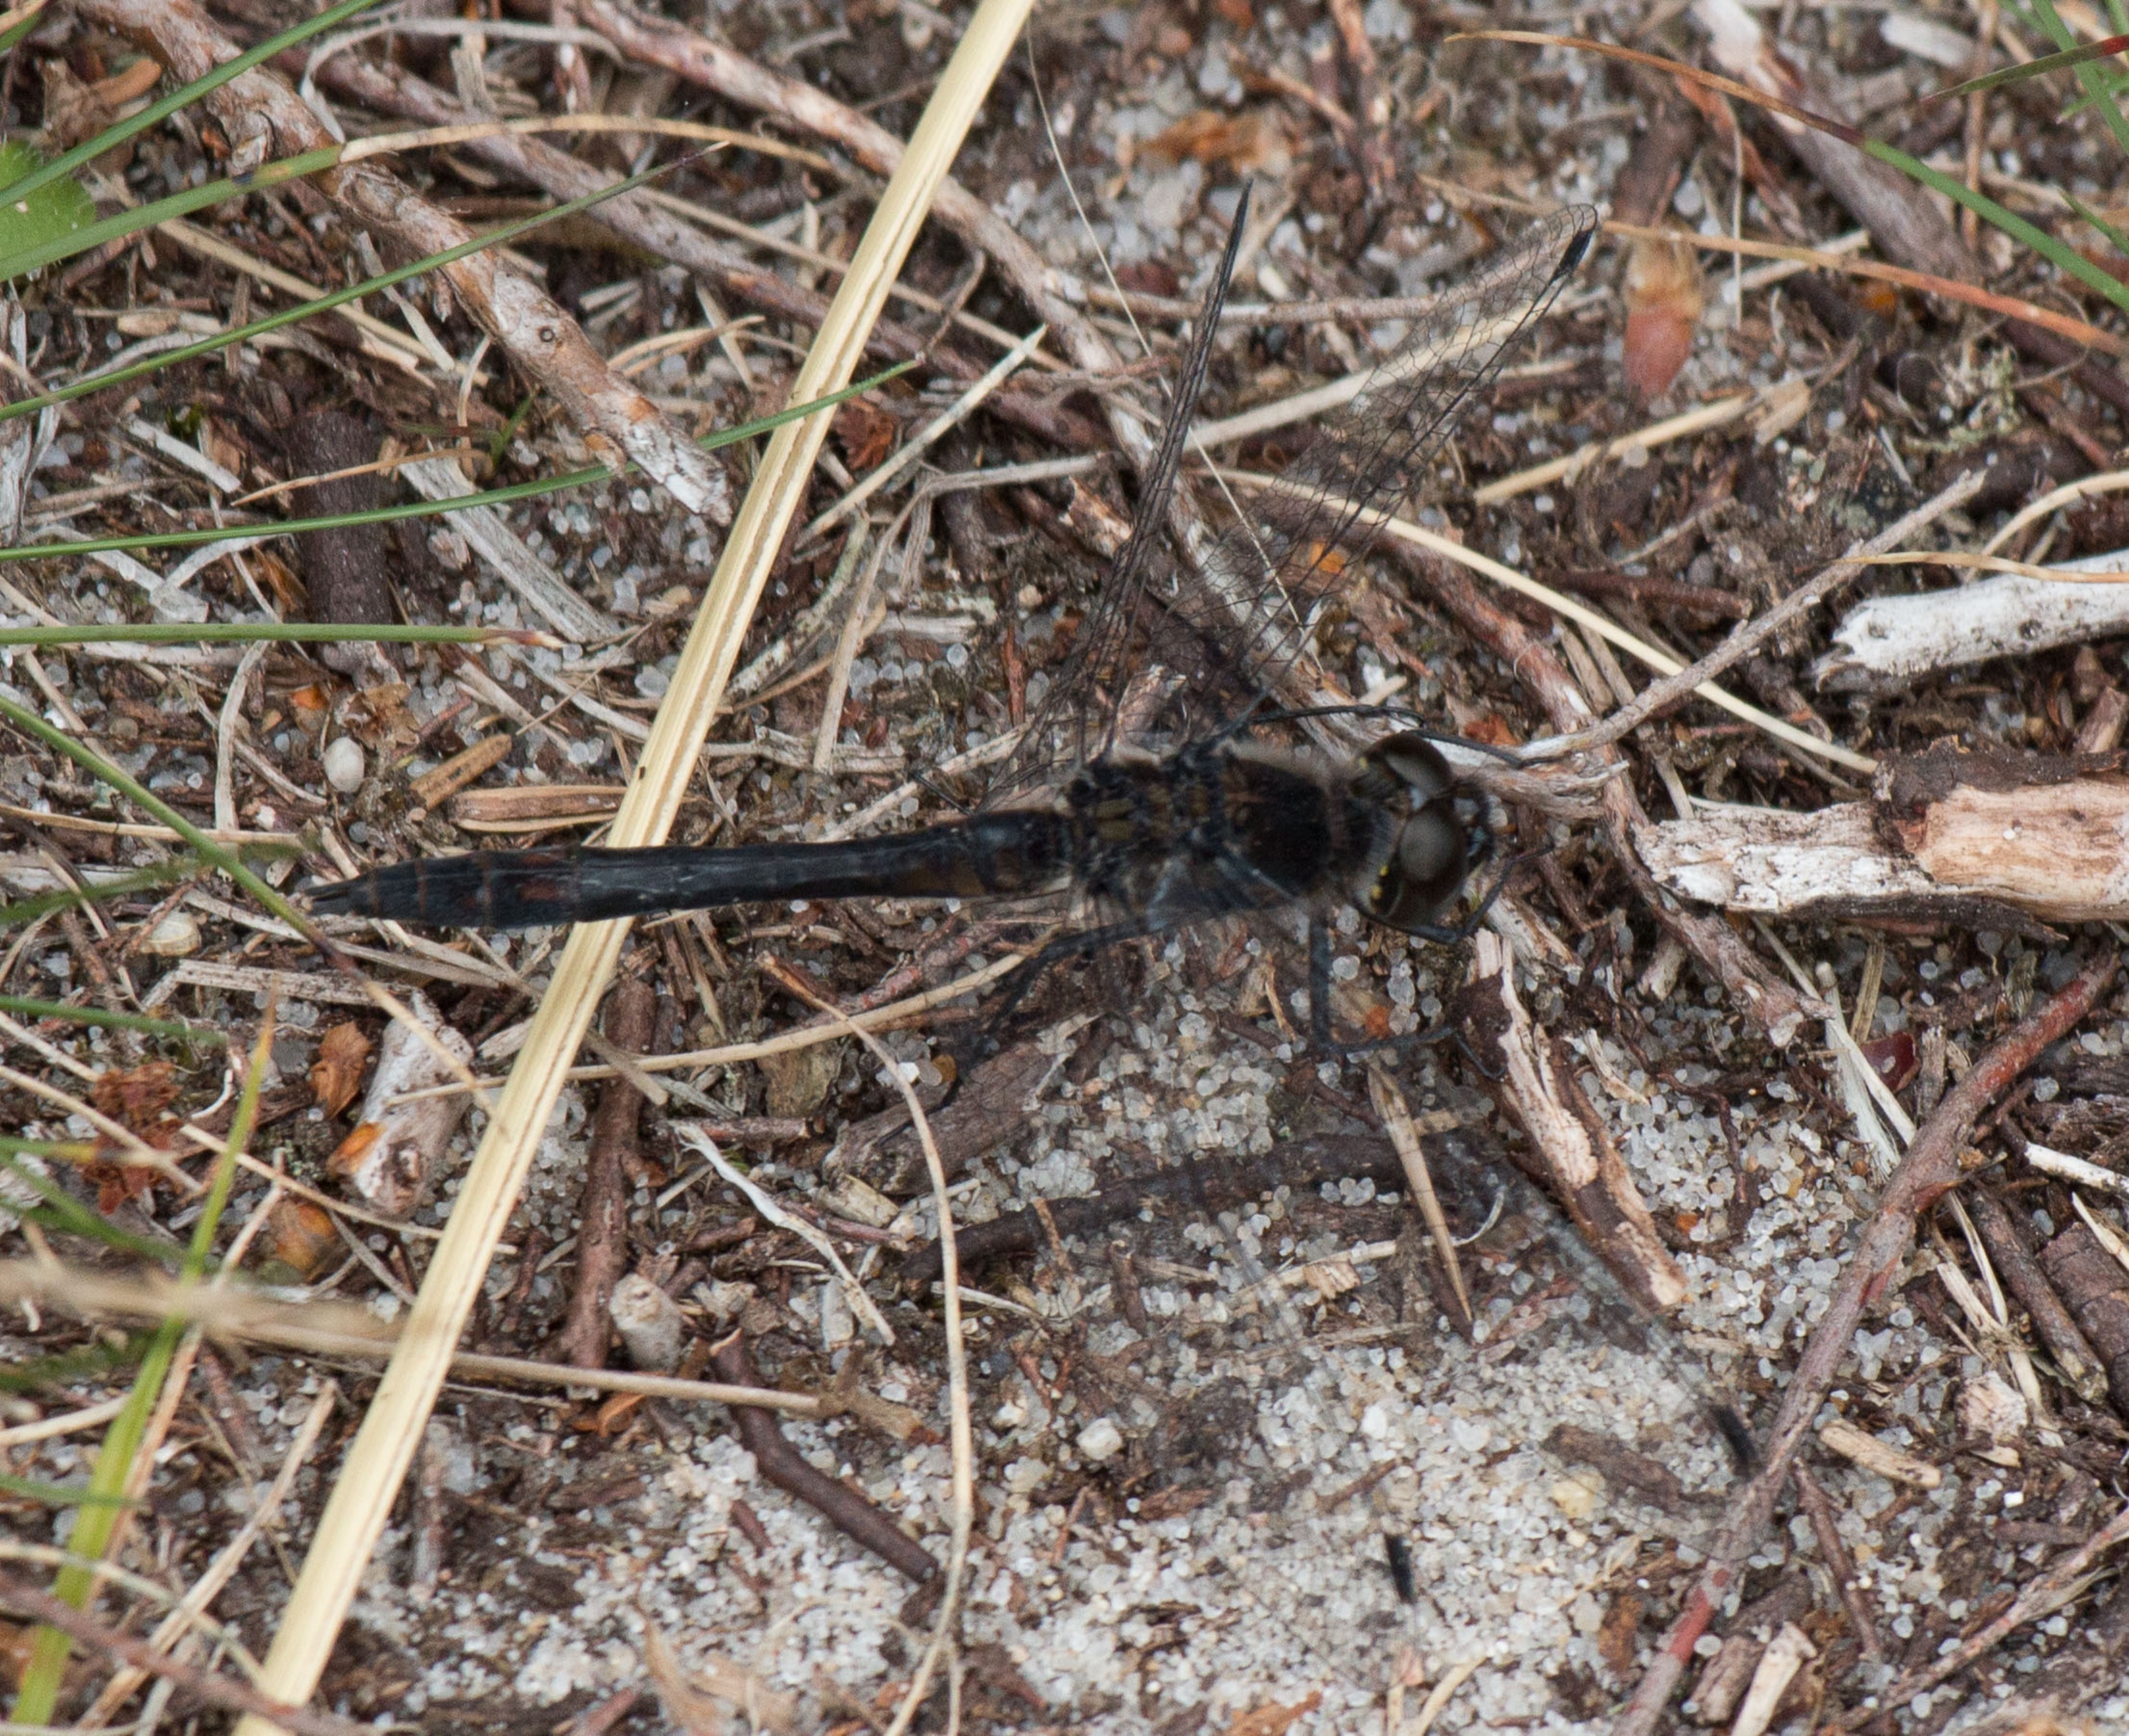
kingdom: Animalia
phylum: Arthropoda
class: Insecta
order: Odonata
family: Libellulidae
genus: Sympetrum
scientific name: Sympetrum danae
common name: Sort hedelibel
